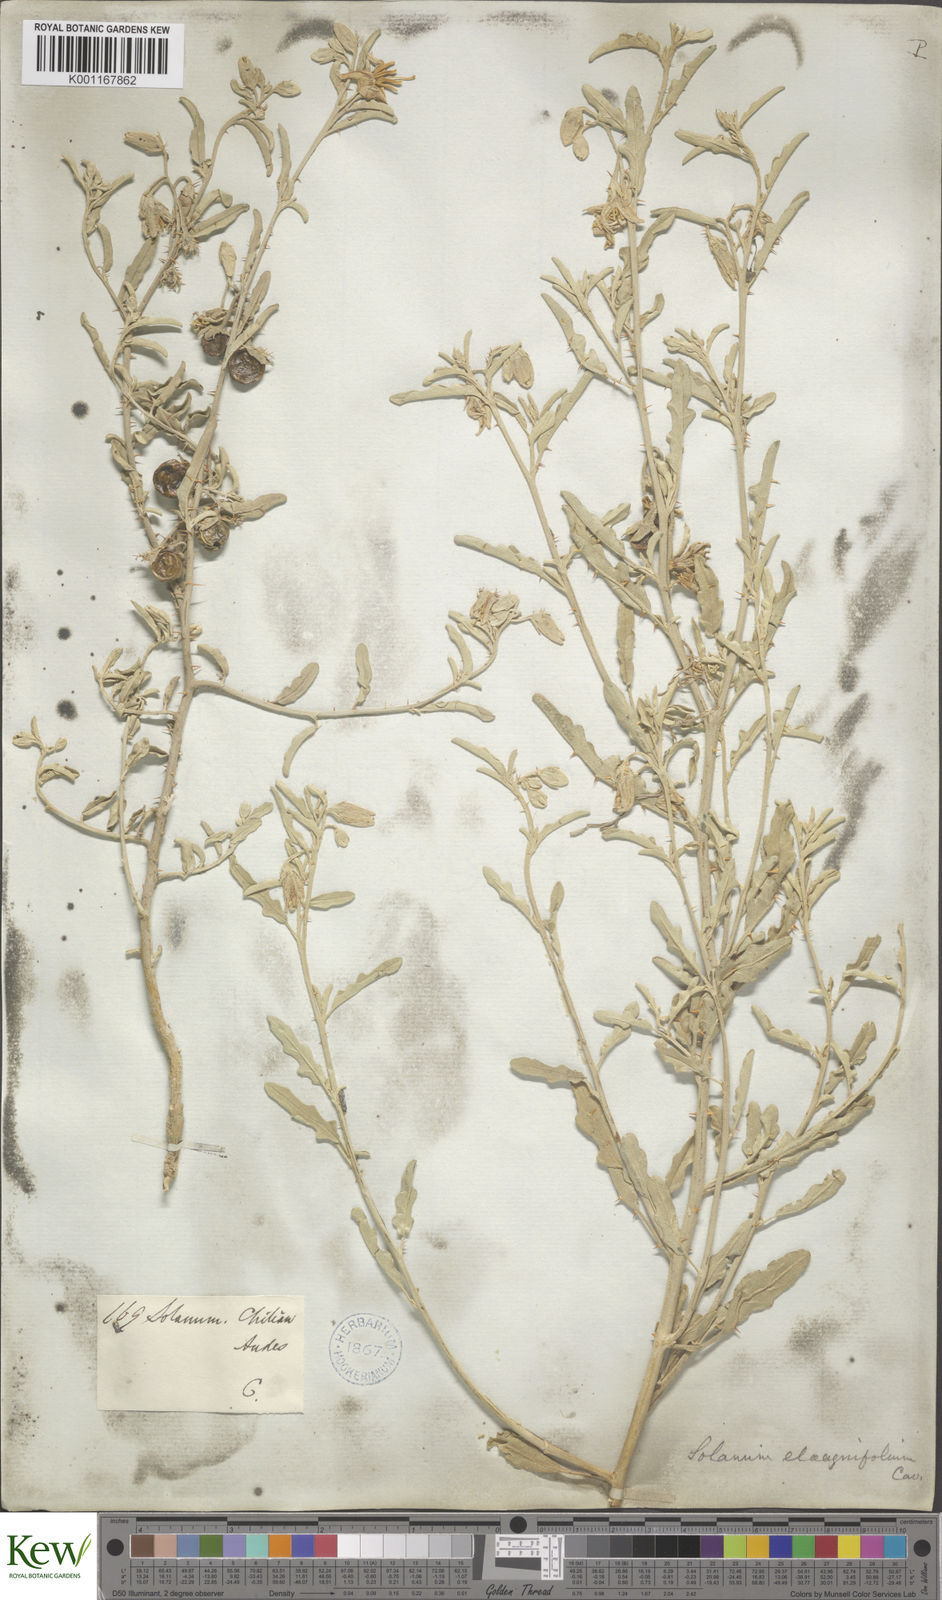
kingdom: Plantae
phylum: Tracheophyta
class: Magnoliopsida
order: Solanales
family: Solanaceae
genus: Solanum
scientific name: Solanum elaeagnifolium
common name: Silverleaf nightshade
